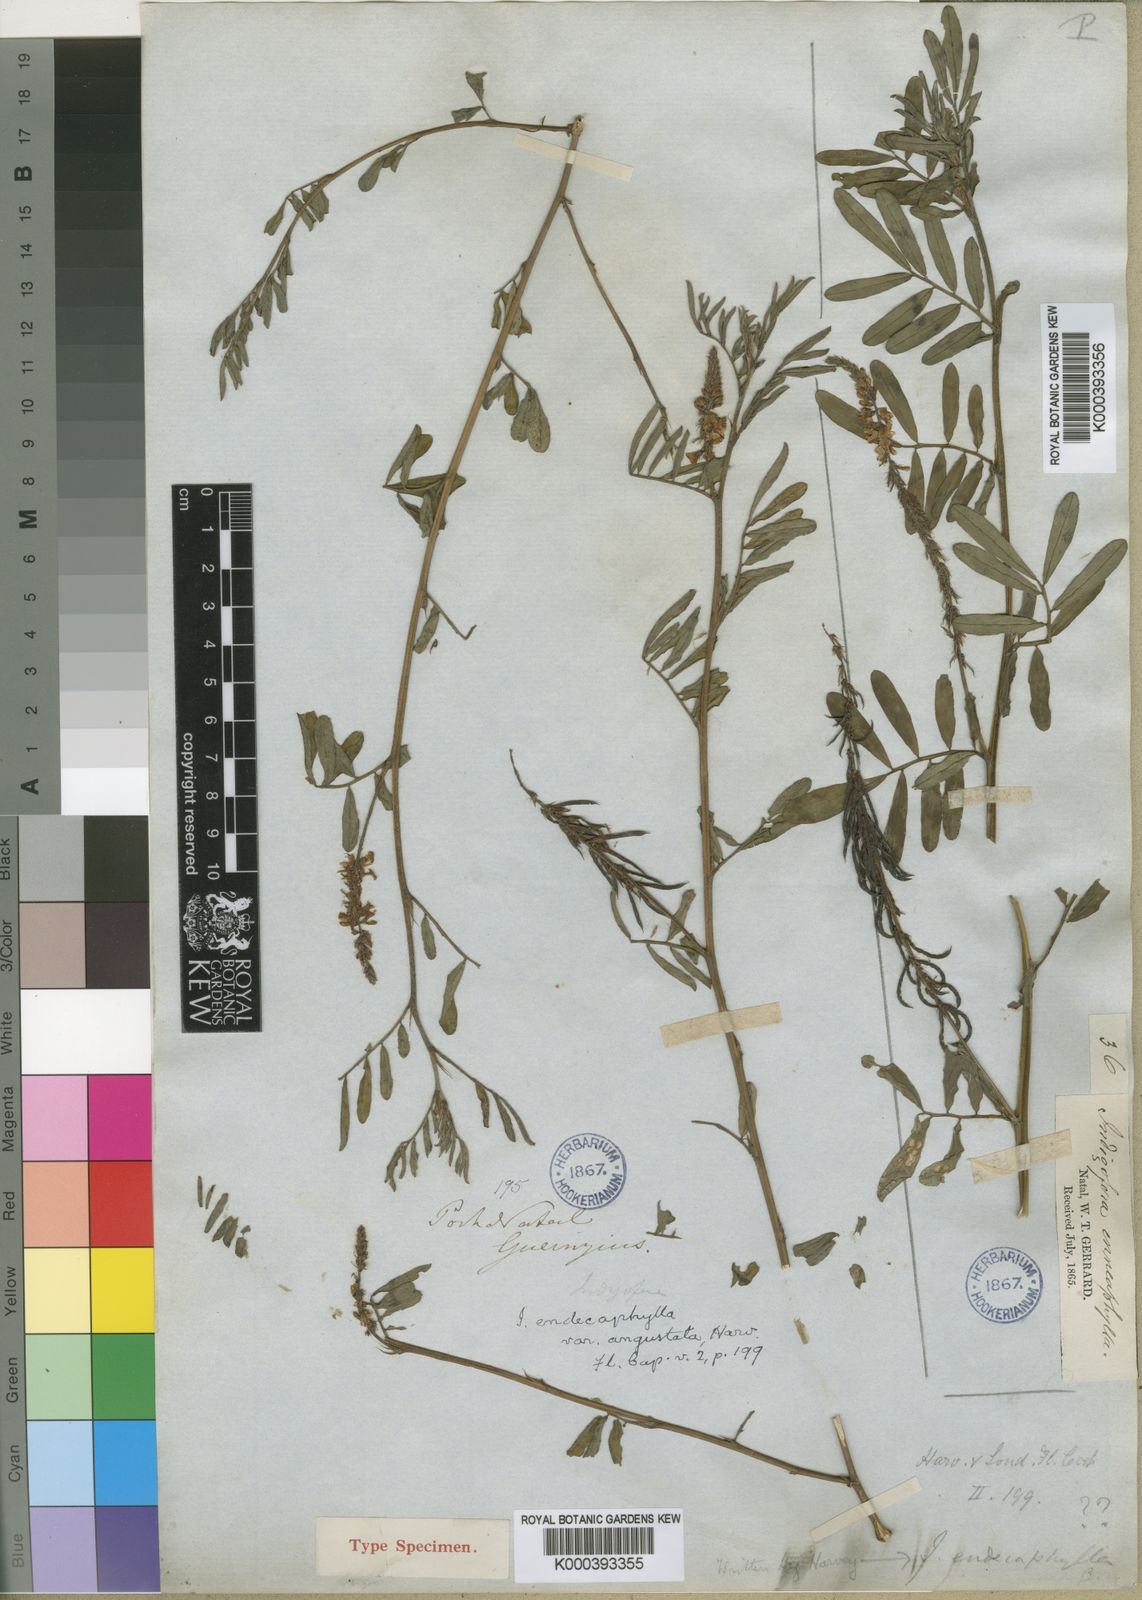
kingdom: Plantae
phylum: Tracheophyta
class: Magnoliopsida
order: Fabales
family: Fabaceae
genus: Indigofera
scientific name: Indigofera hendecaphylla
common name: Trailing indigo
